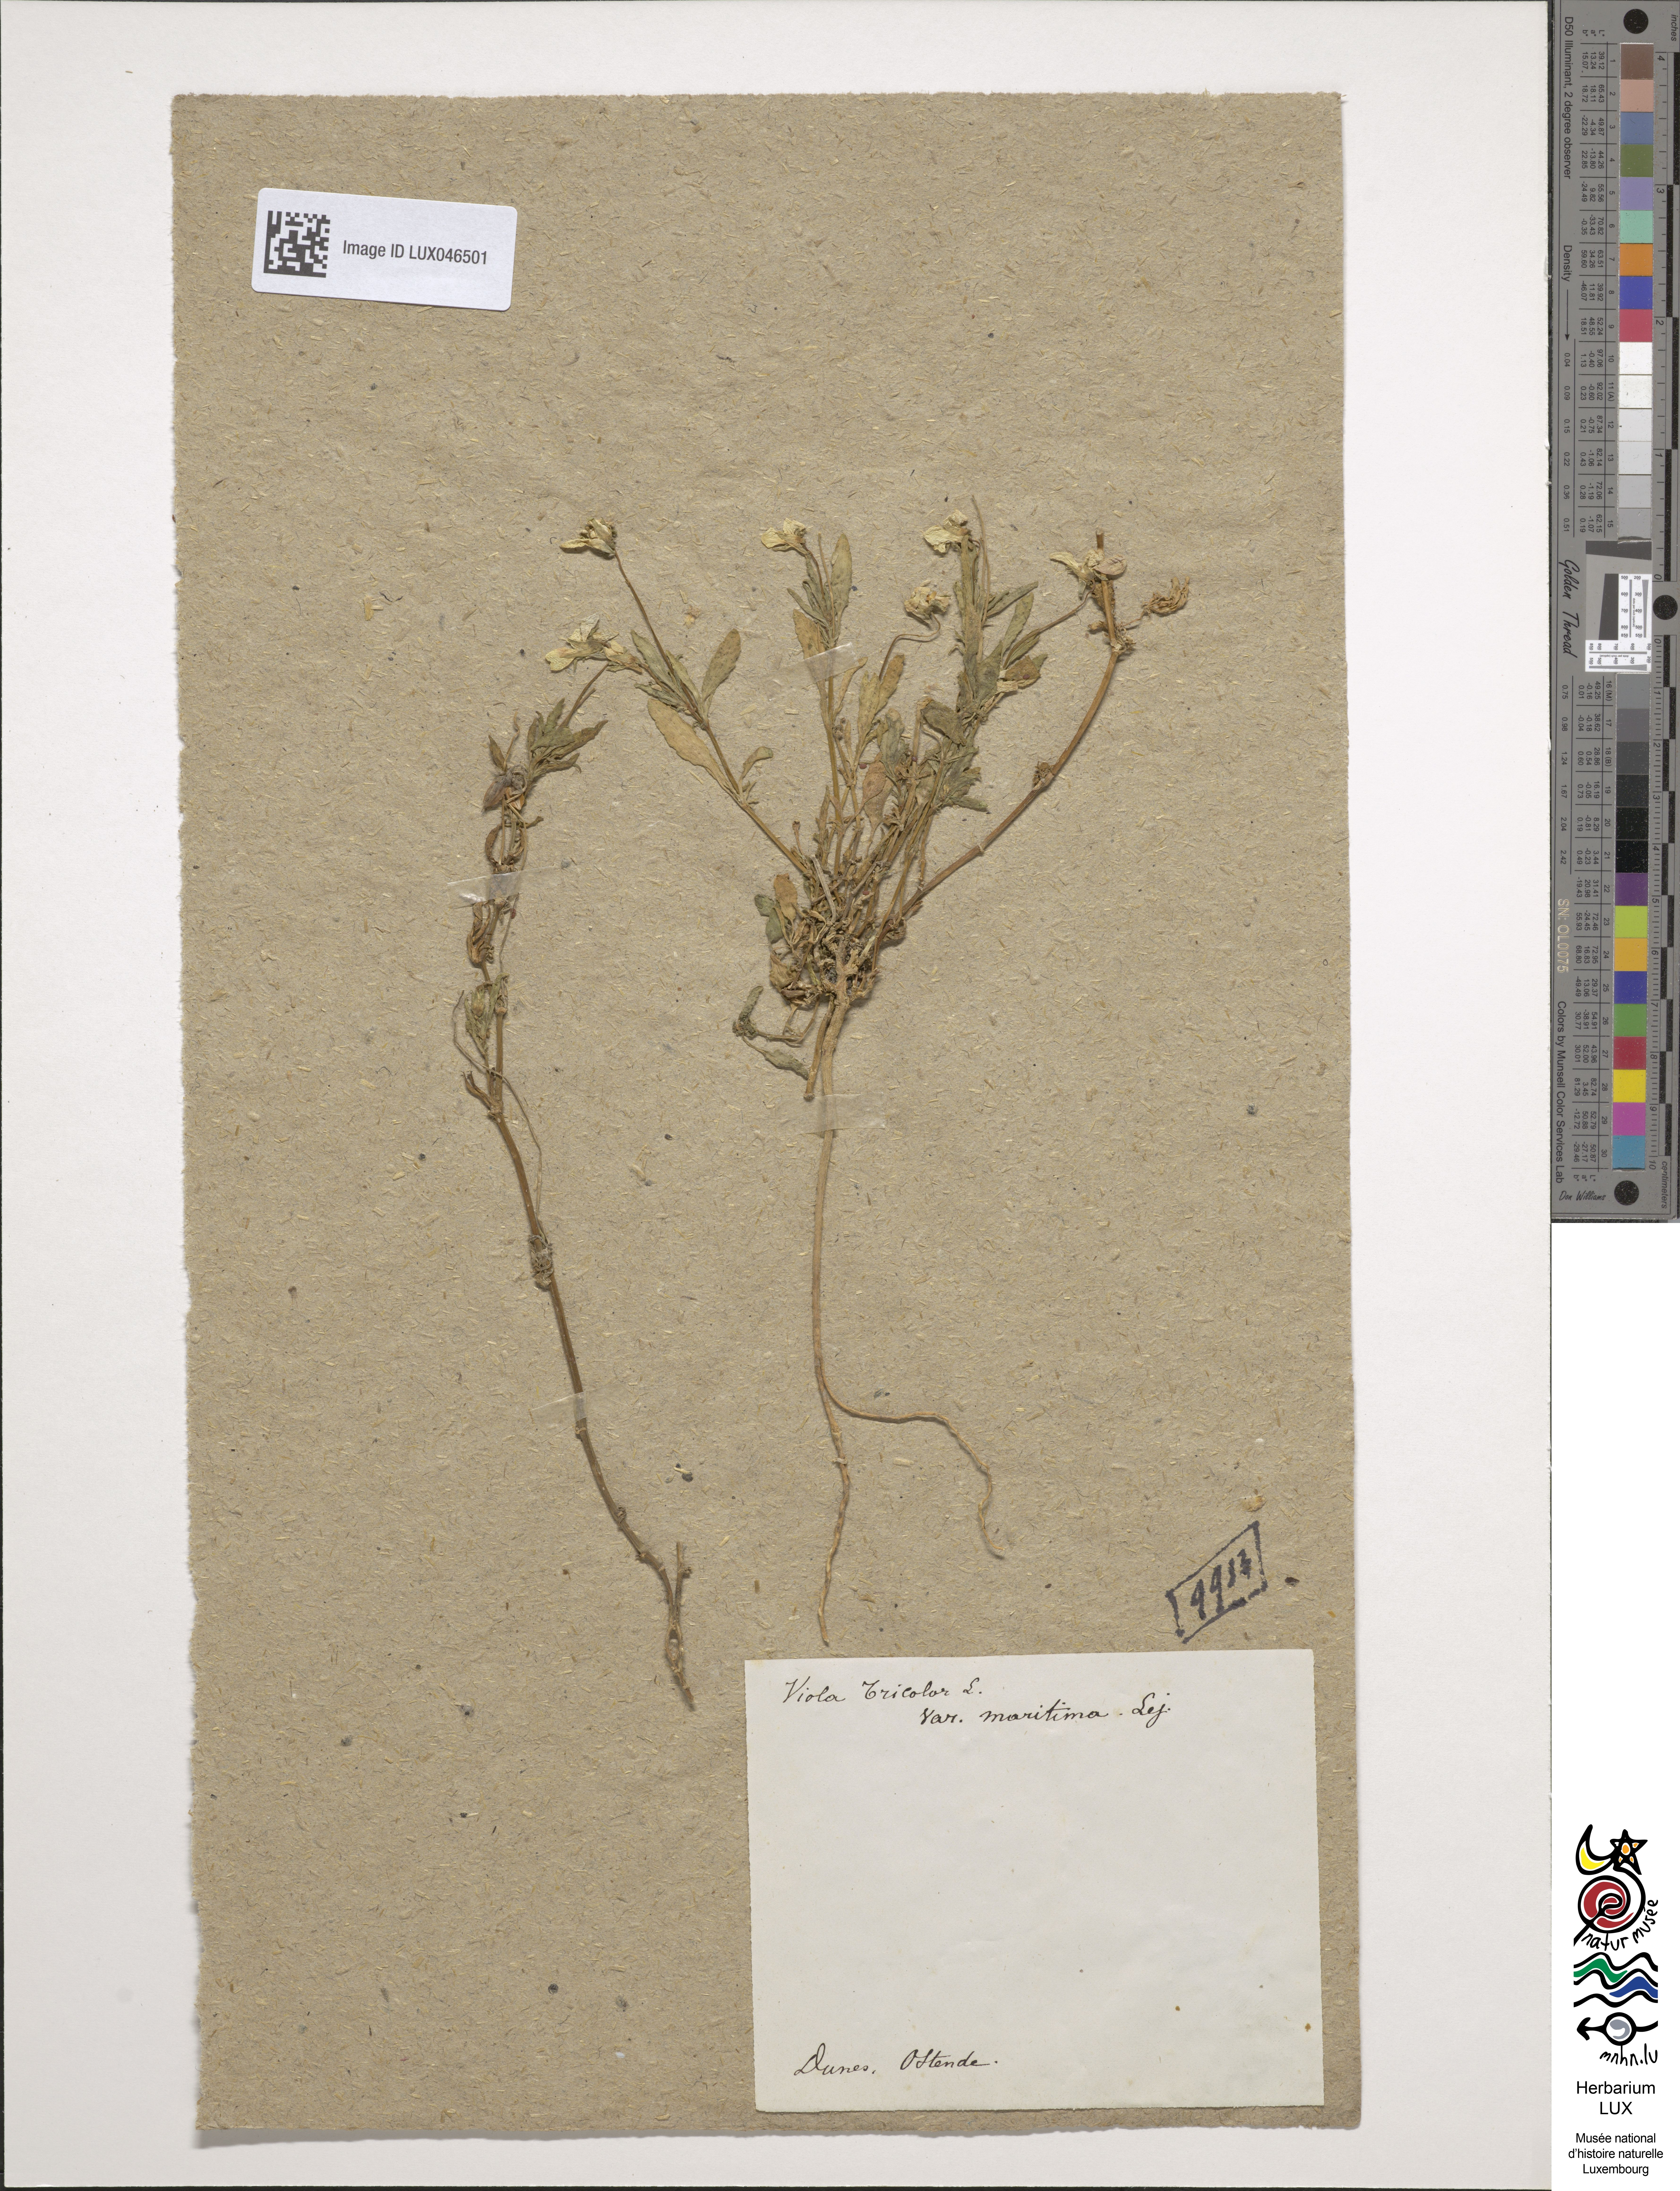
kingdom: Plantae
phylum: Tracheophyta
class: Magnoliopsida
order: Malpighiales
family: Violaceae
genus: Viola
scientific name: Viola tricolor
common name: Pansy
